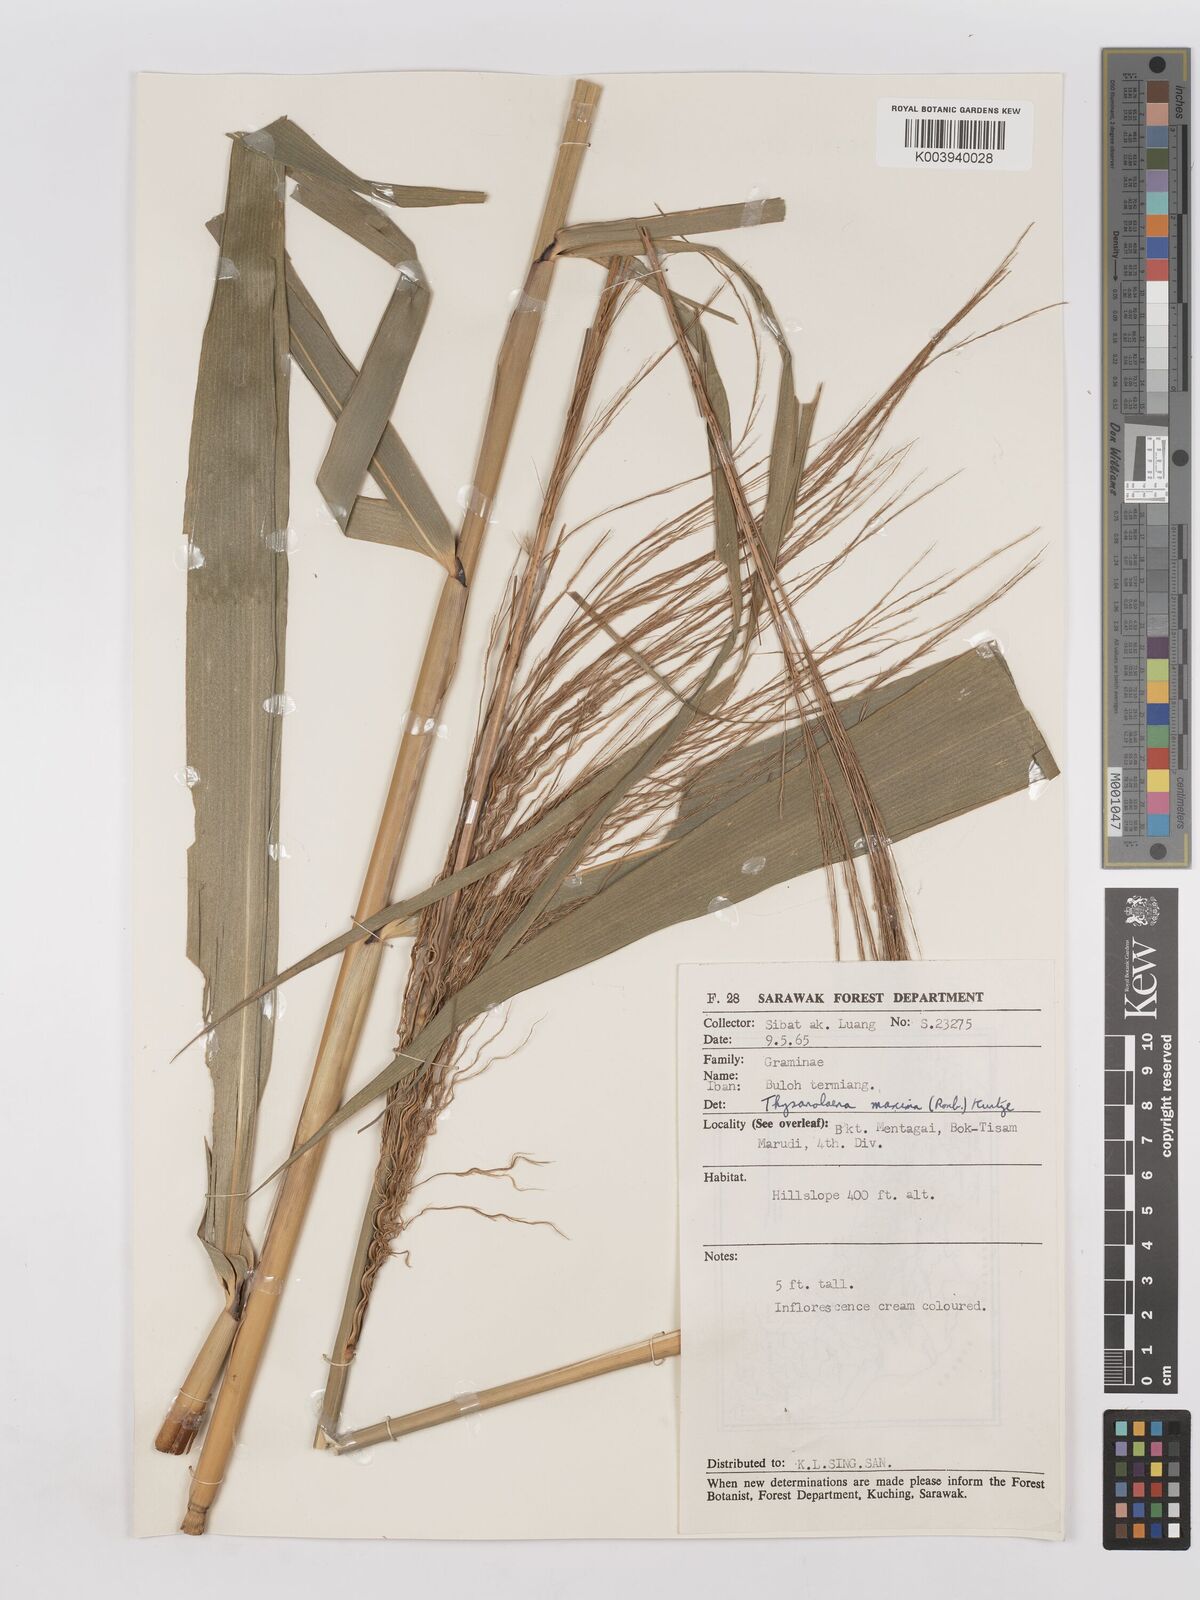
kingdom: Plantae
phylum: Tracheophyta
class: Liliopsida
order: Poales
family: Poaceae
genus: Thysanolaena
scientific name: Thysanolaena latifolia
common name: Tiger grass
